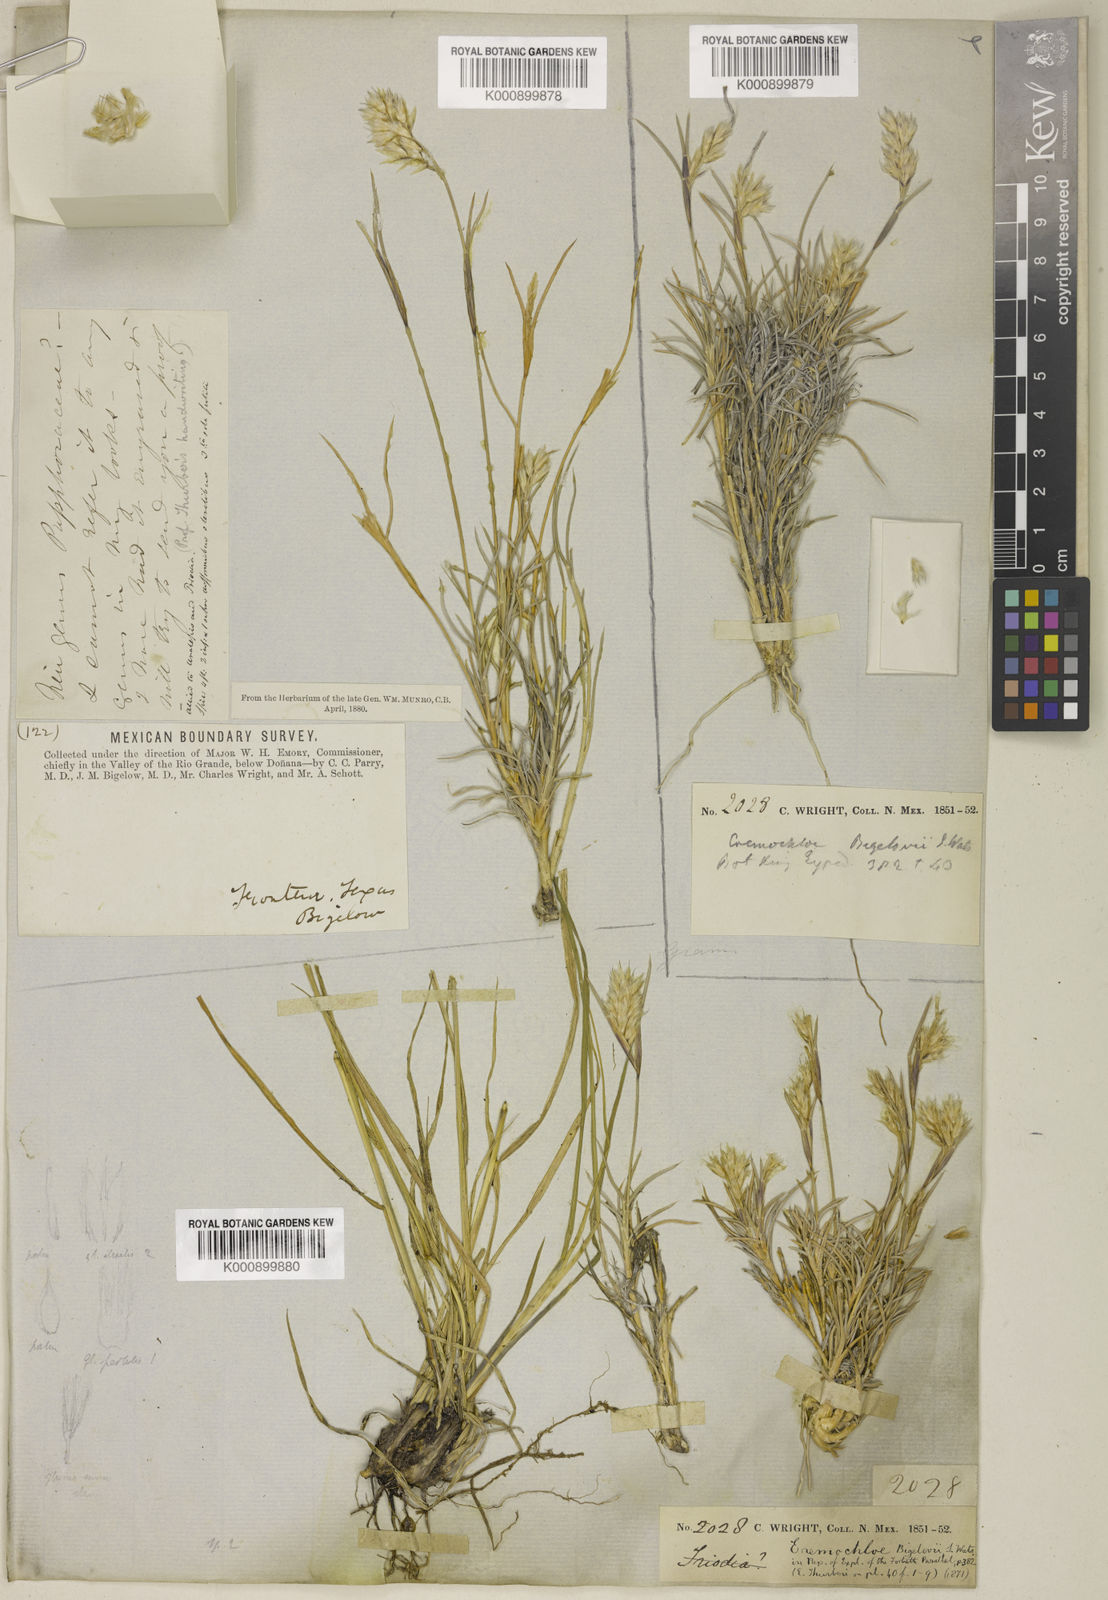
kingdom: Plantae
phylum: Tracheophyta
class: Liliopsida
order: Poales
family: Poaceae
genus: Blepharoneuron
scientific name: Blepharoneuron
